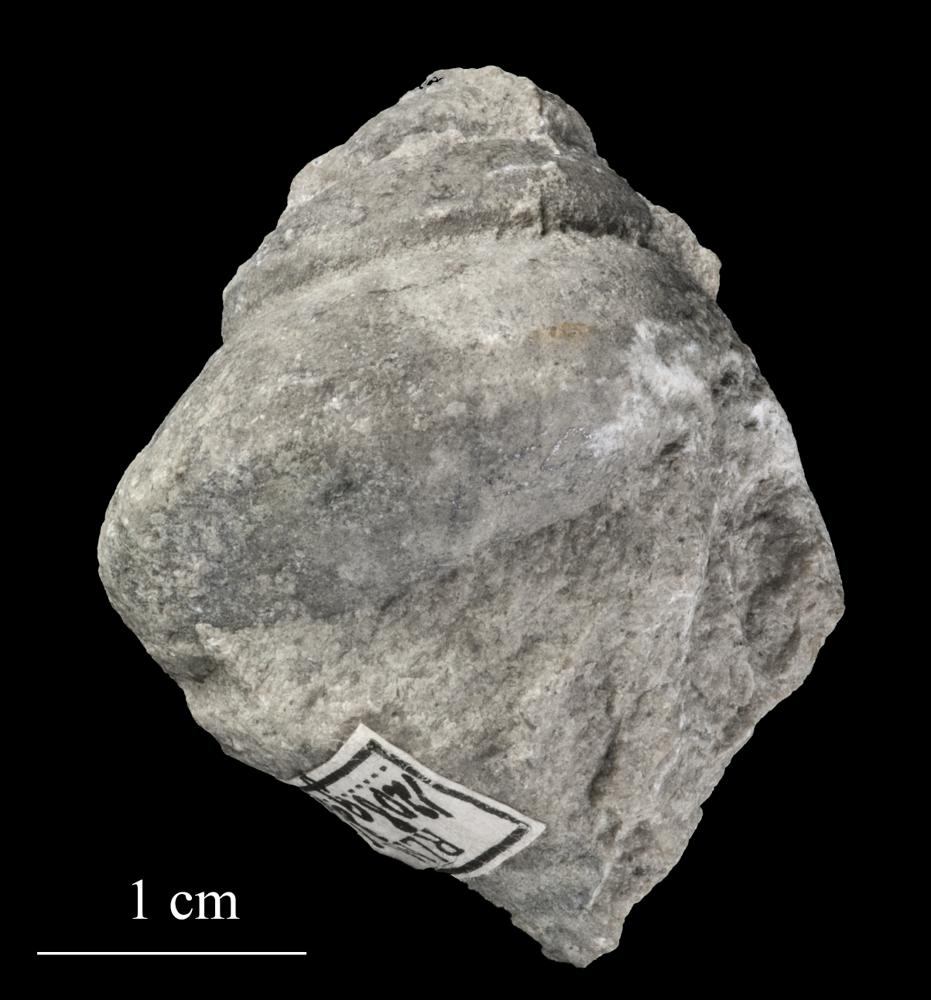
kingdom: Animalia
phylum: Mollusca
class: Gastropoda
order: Trochida
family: Trochidae
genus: Trochus
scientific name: Trochus ellipticus
